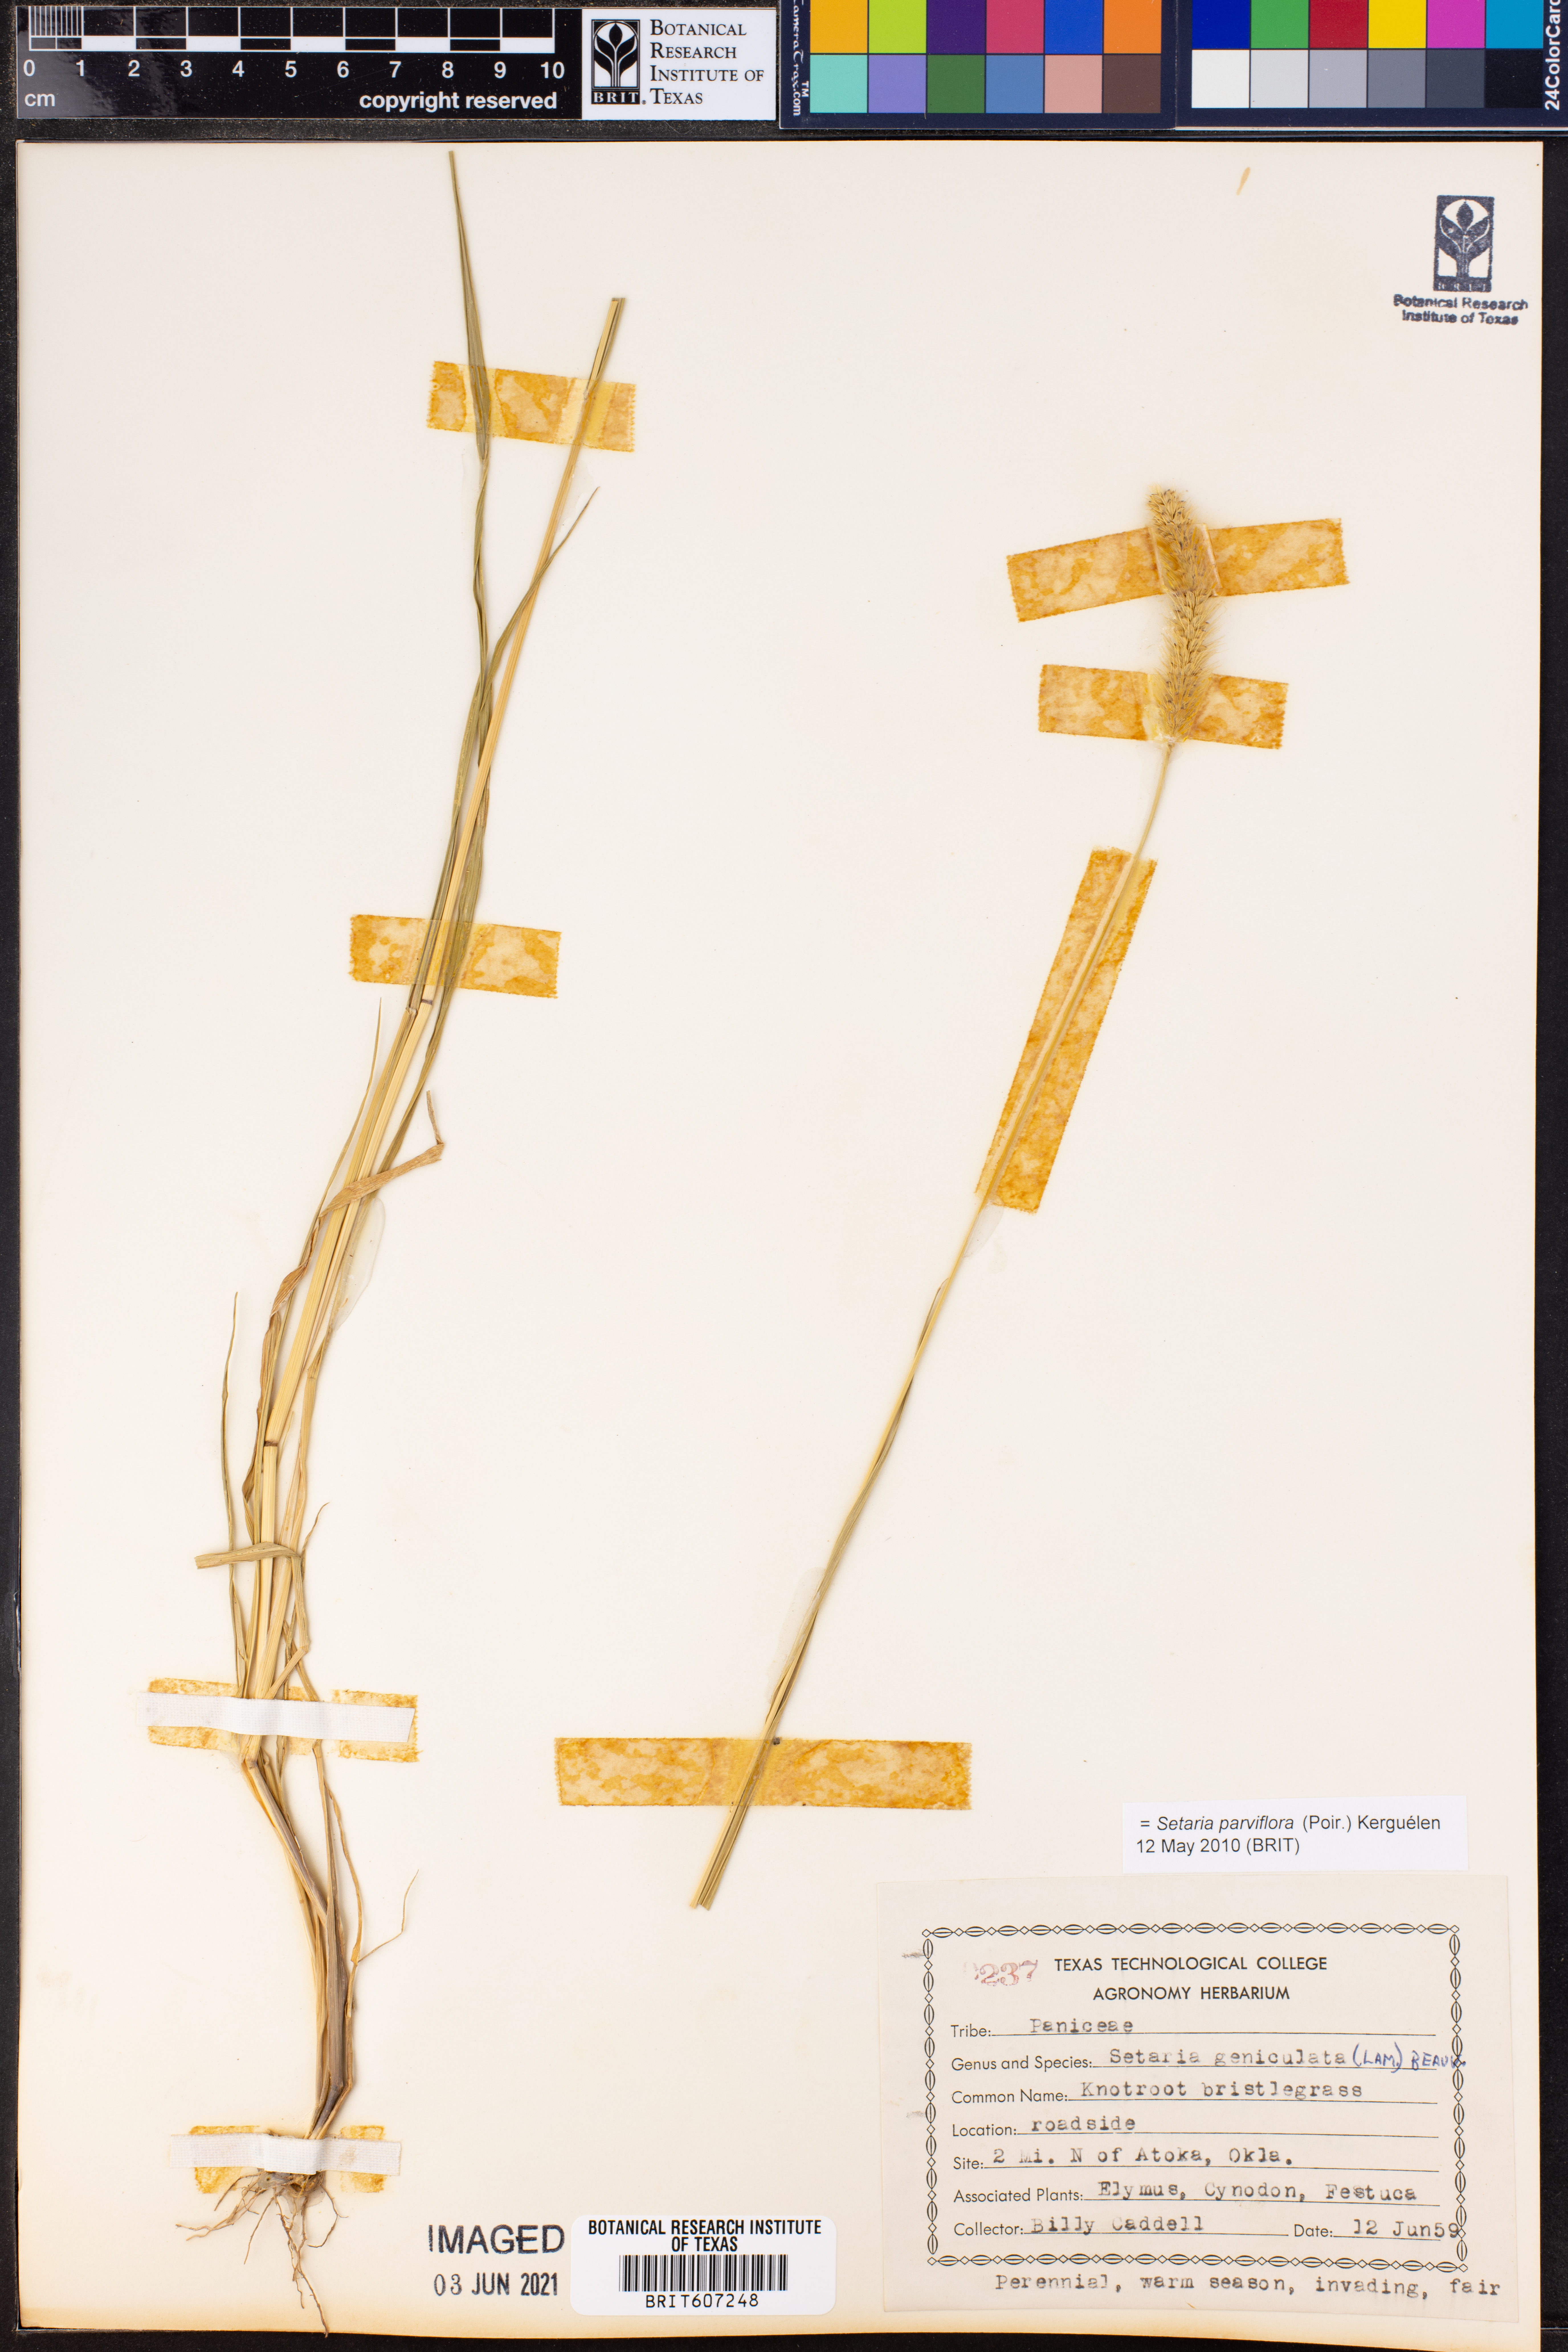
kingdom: Plantae
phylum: Tracheophyta
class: Liliopsida
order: Poales
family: Poaceae
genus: Setaria
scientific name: Setaria parviflora
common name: Knotroot bristle-grass
